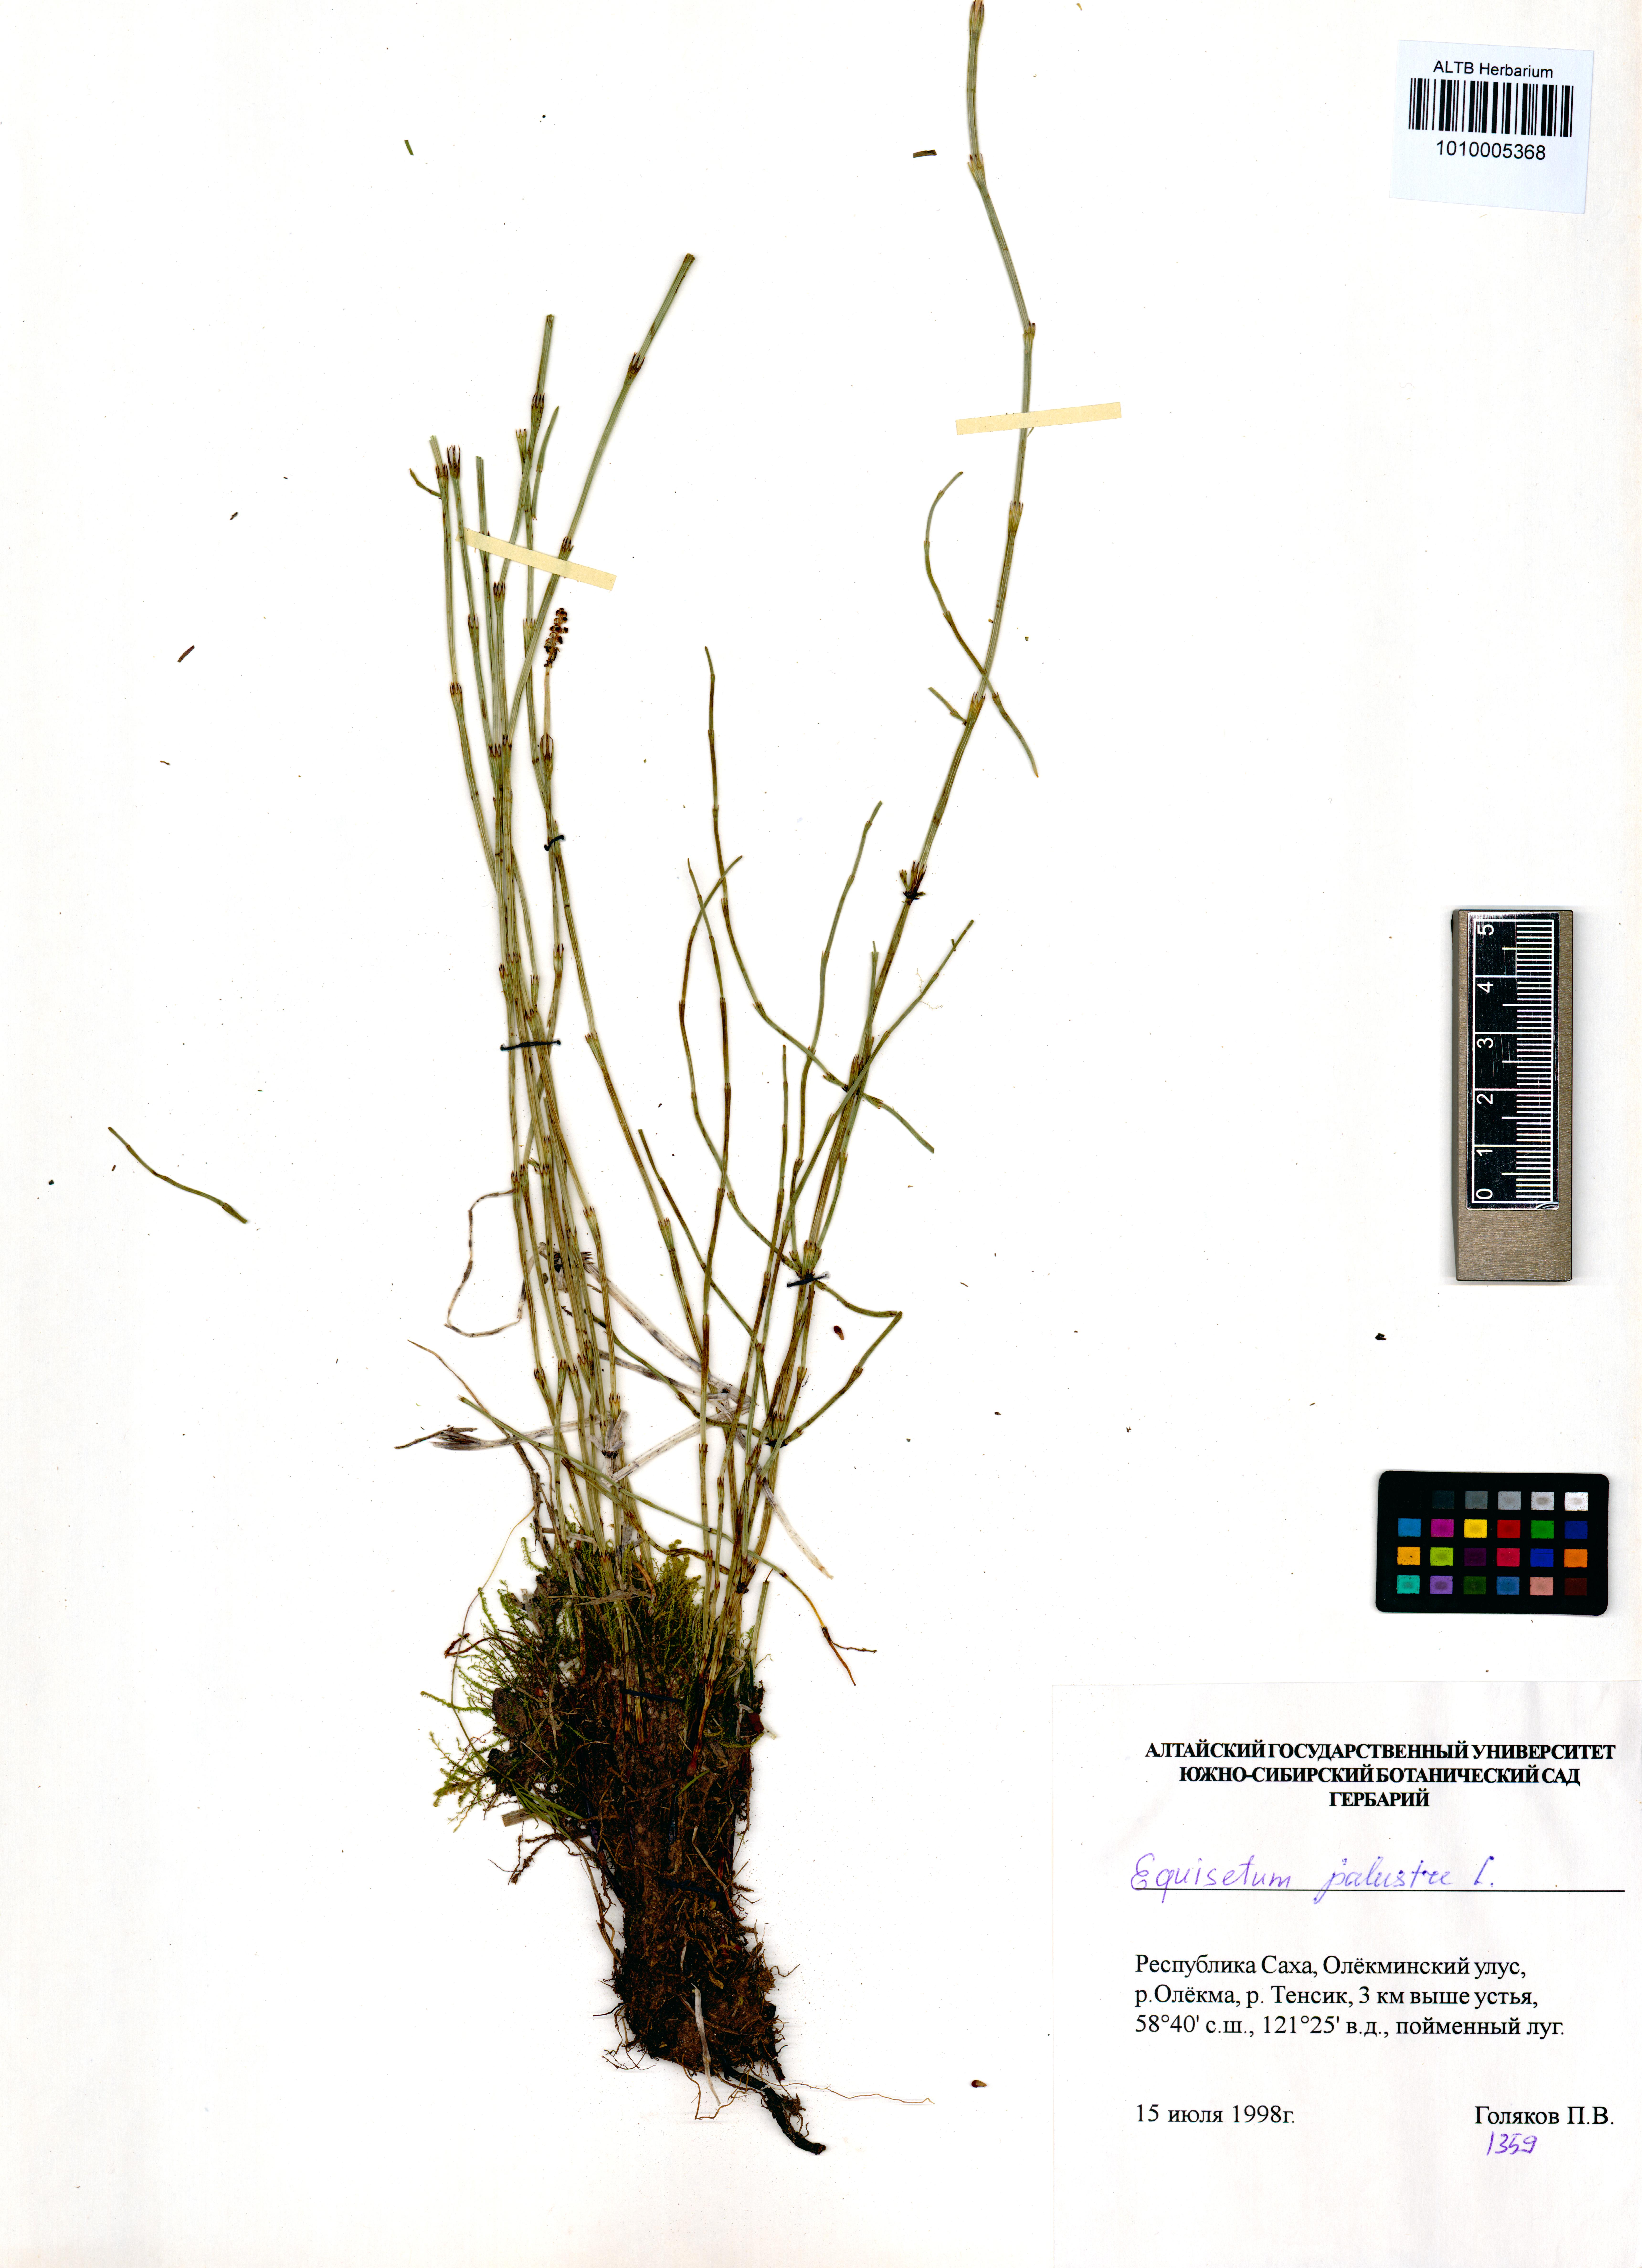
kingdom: Plantae
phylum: Tracheophyta
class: Polypodiopsida
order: Equisetales
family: Equisetaceae
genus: Equisetum
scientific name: Equisetum palustre
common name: Marsh horsetail
